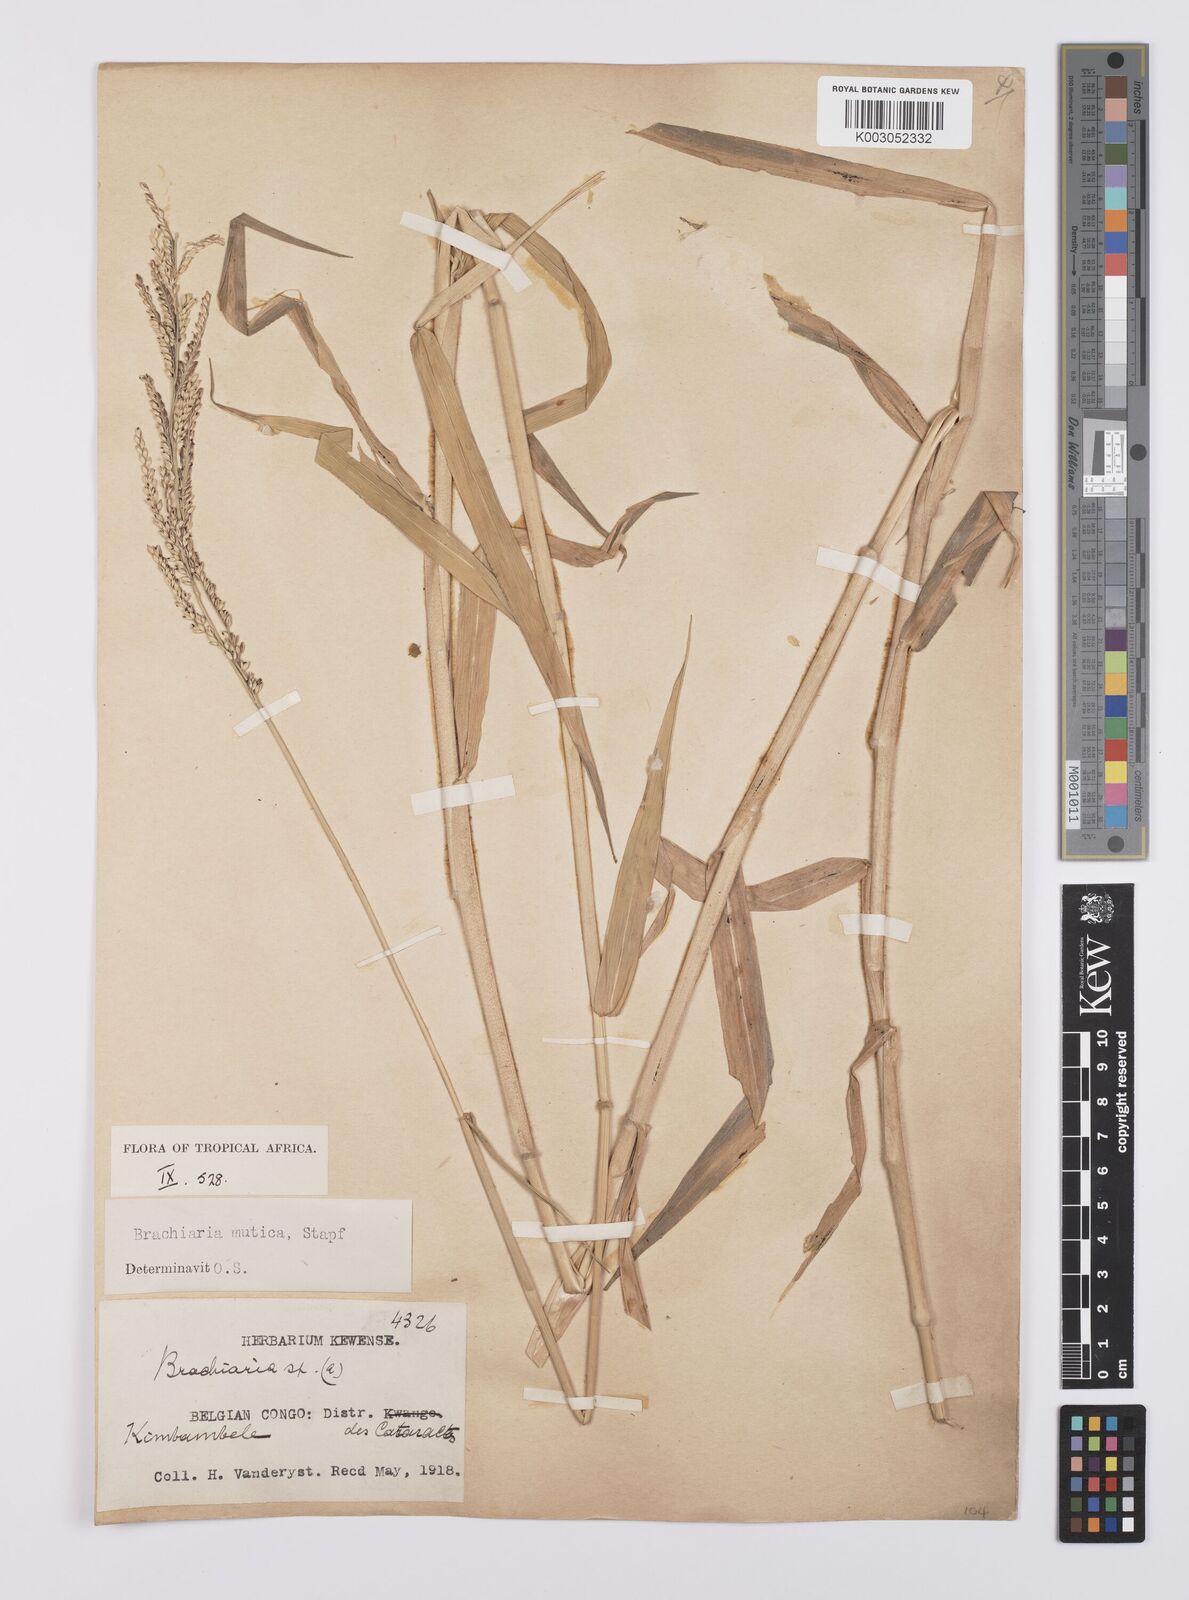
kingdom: Plantae
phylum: Tracheophyta
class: Liliopsida
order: Poales
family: Poaceae
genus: Urochloa
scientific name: Urochloa mutica
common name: Para grass
